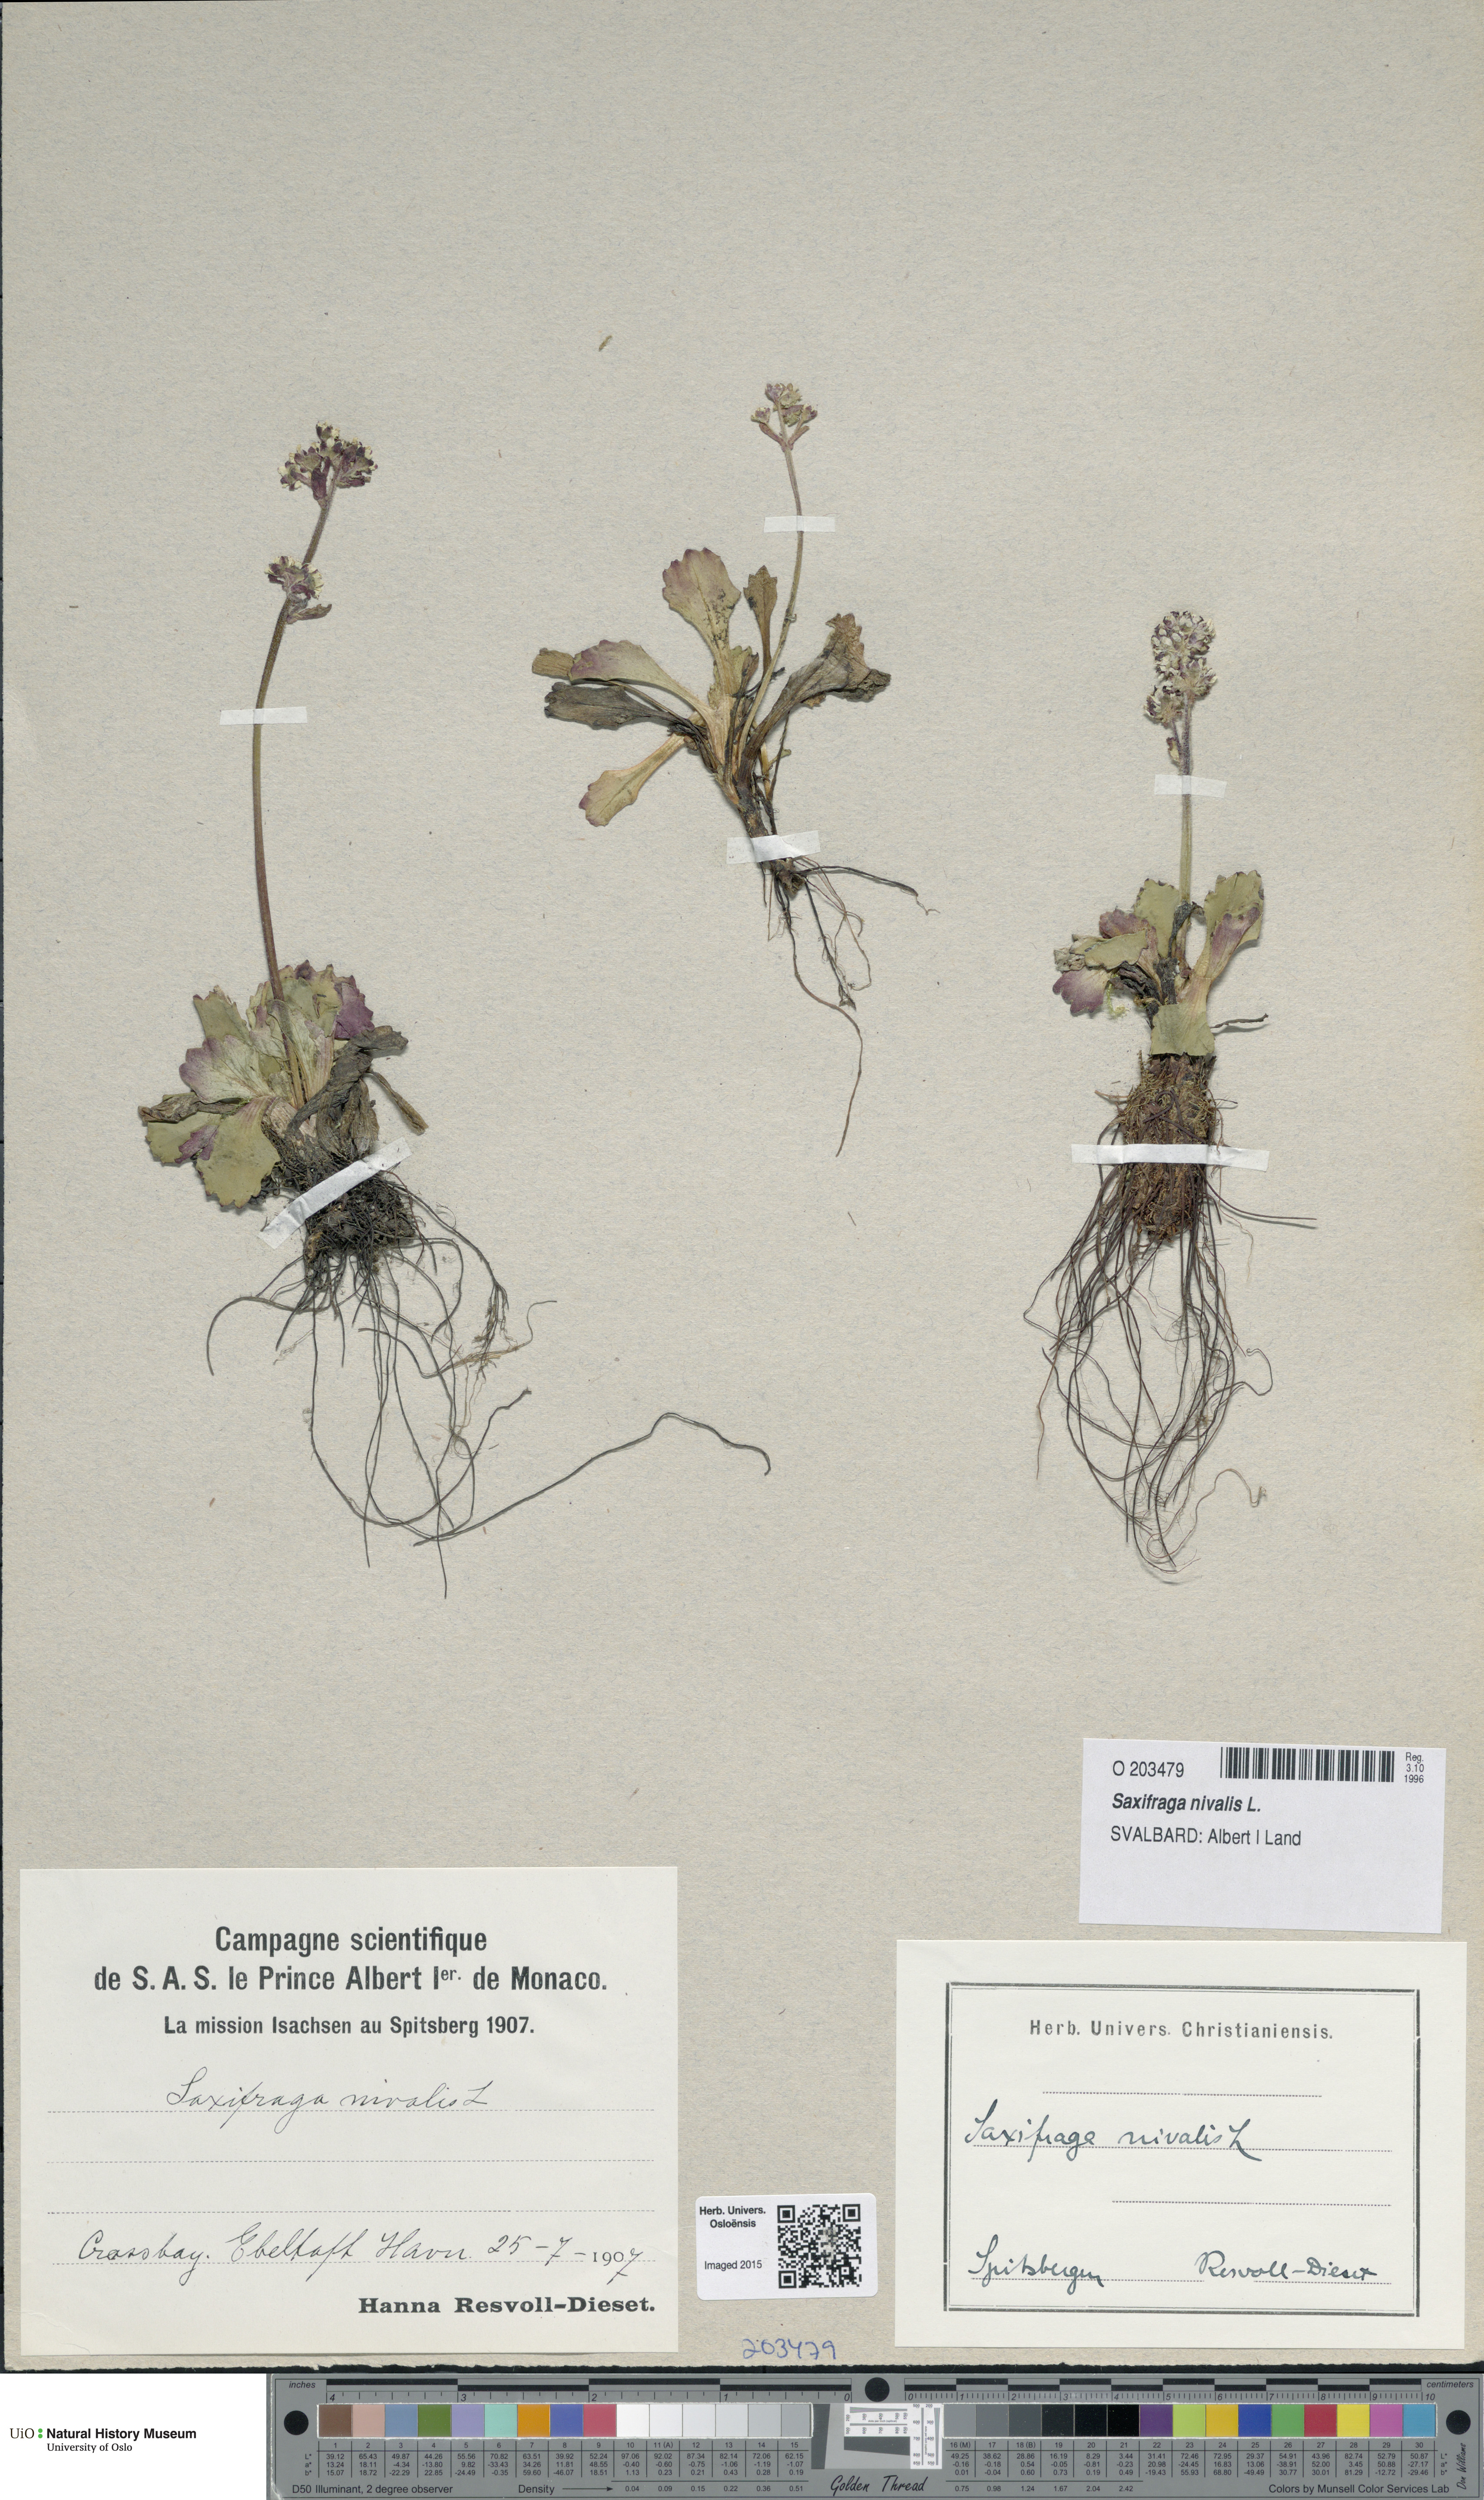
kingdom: Plantae
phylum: Tracheophyta
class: Magnoliopsida
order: Saxifragales
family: Saxifragaceae
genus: Micranthes
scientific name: Micranthes nivalis
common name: Alpine saxifrage
